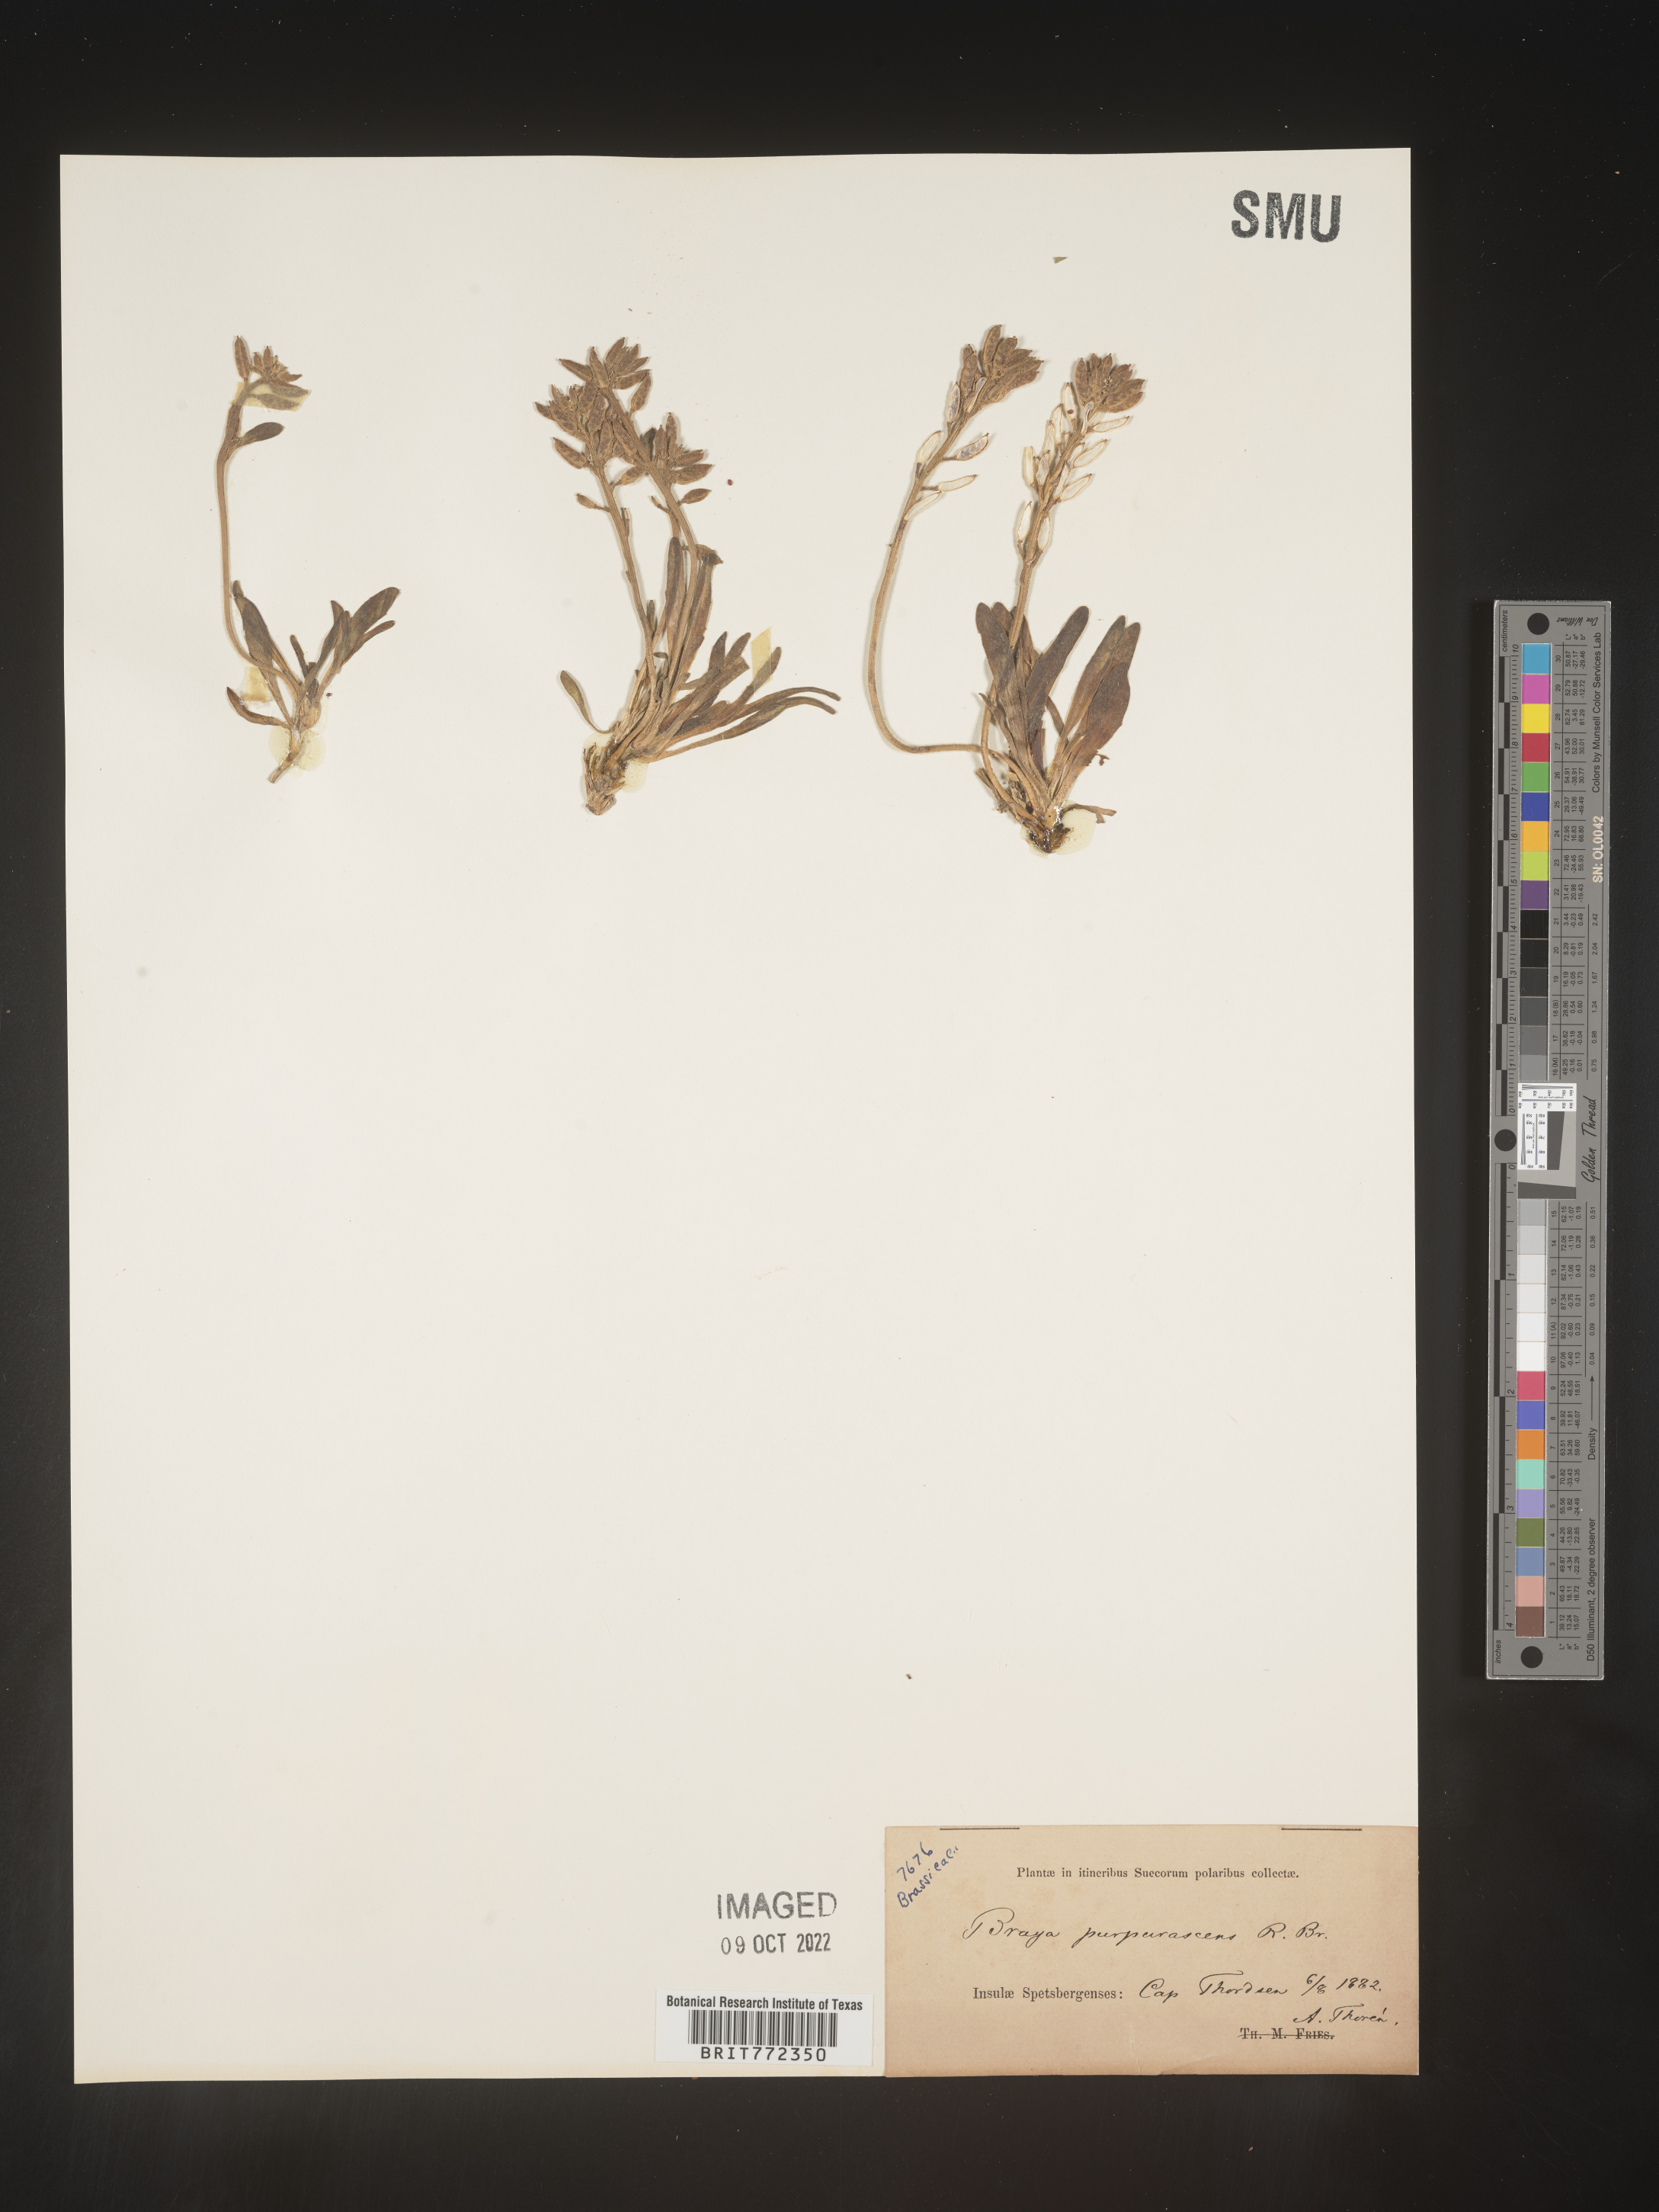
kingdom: Plantae
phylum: Tracheophyta
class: Magnoliopsida
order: Brassicales
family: Brassicaceae
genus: Braya
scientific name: Braya
